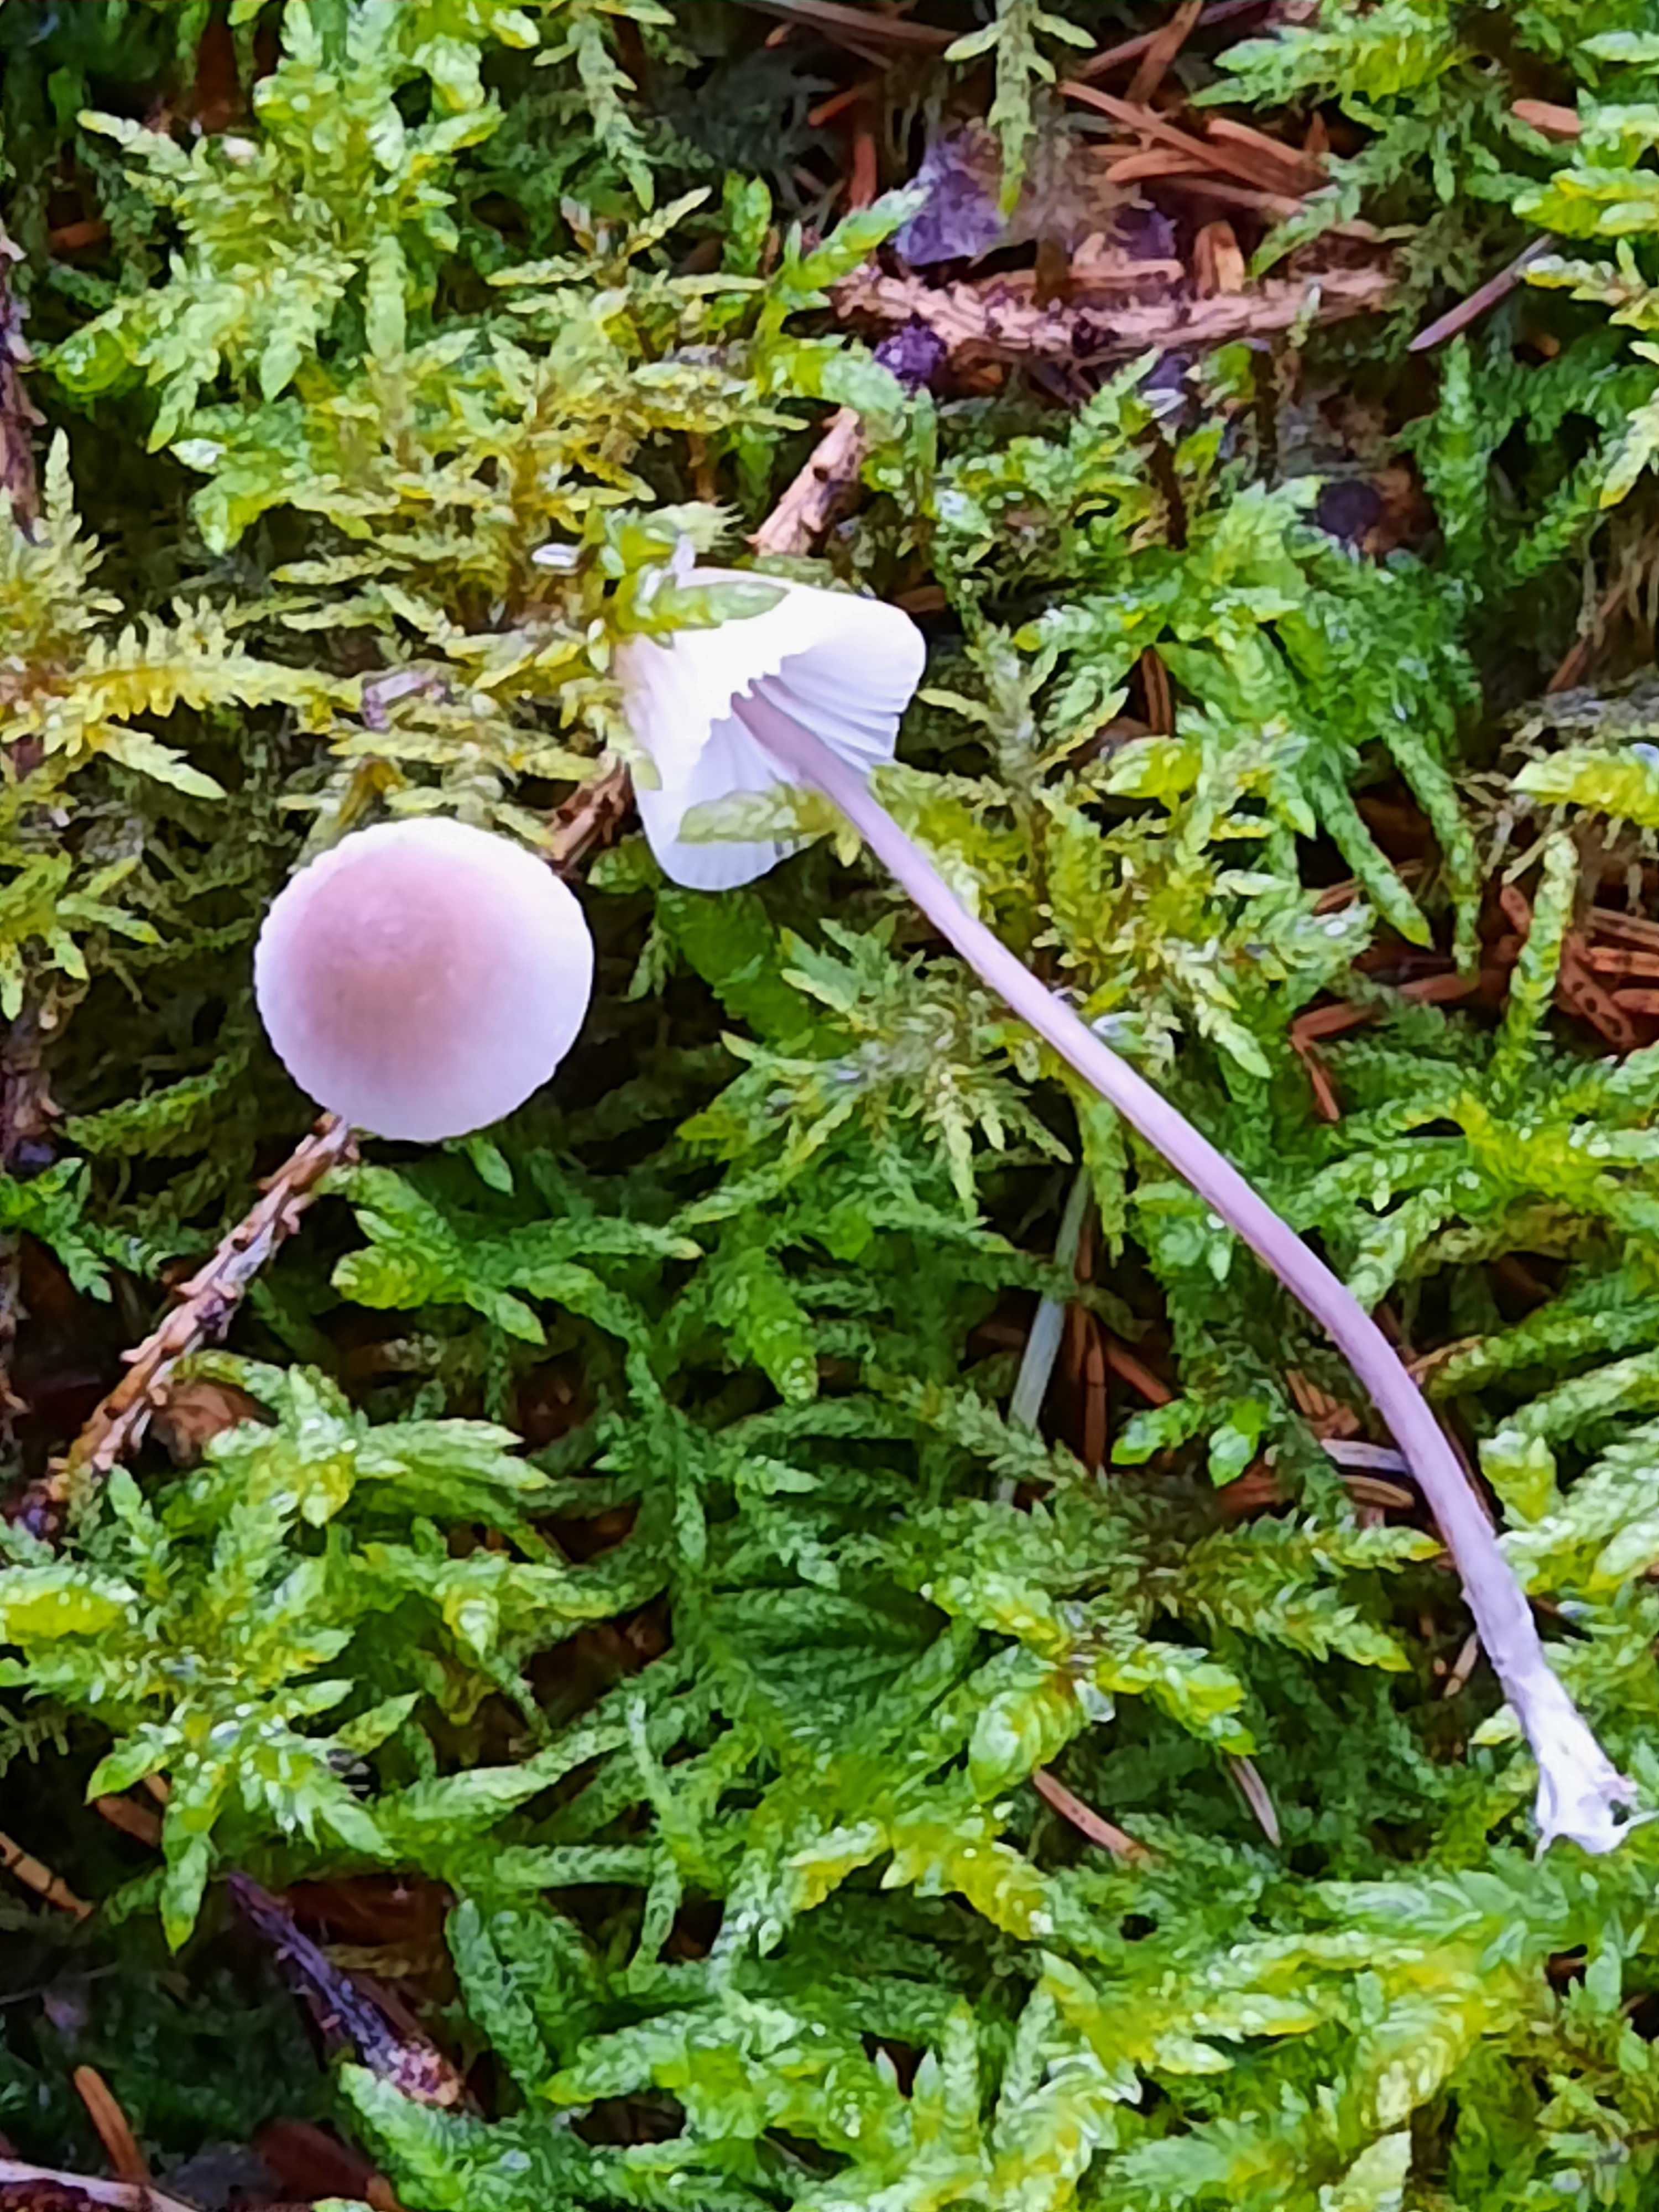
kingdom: Fungi
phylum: Basidiomycota
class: Agaricomycetes
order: Agaricales
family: Mycenaceae
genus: Mycena
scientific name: Mycena galopus
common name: hvidmælket huesvamp
